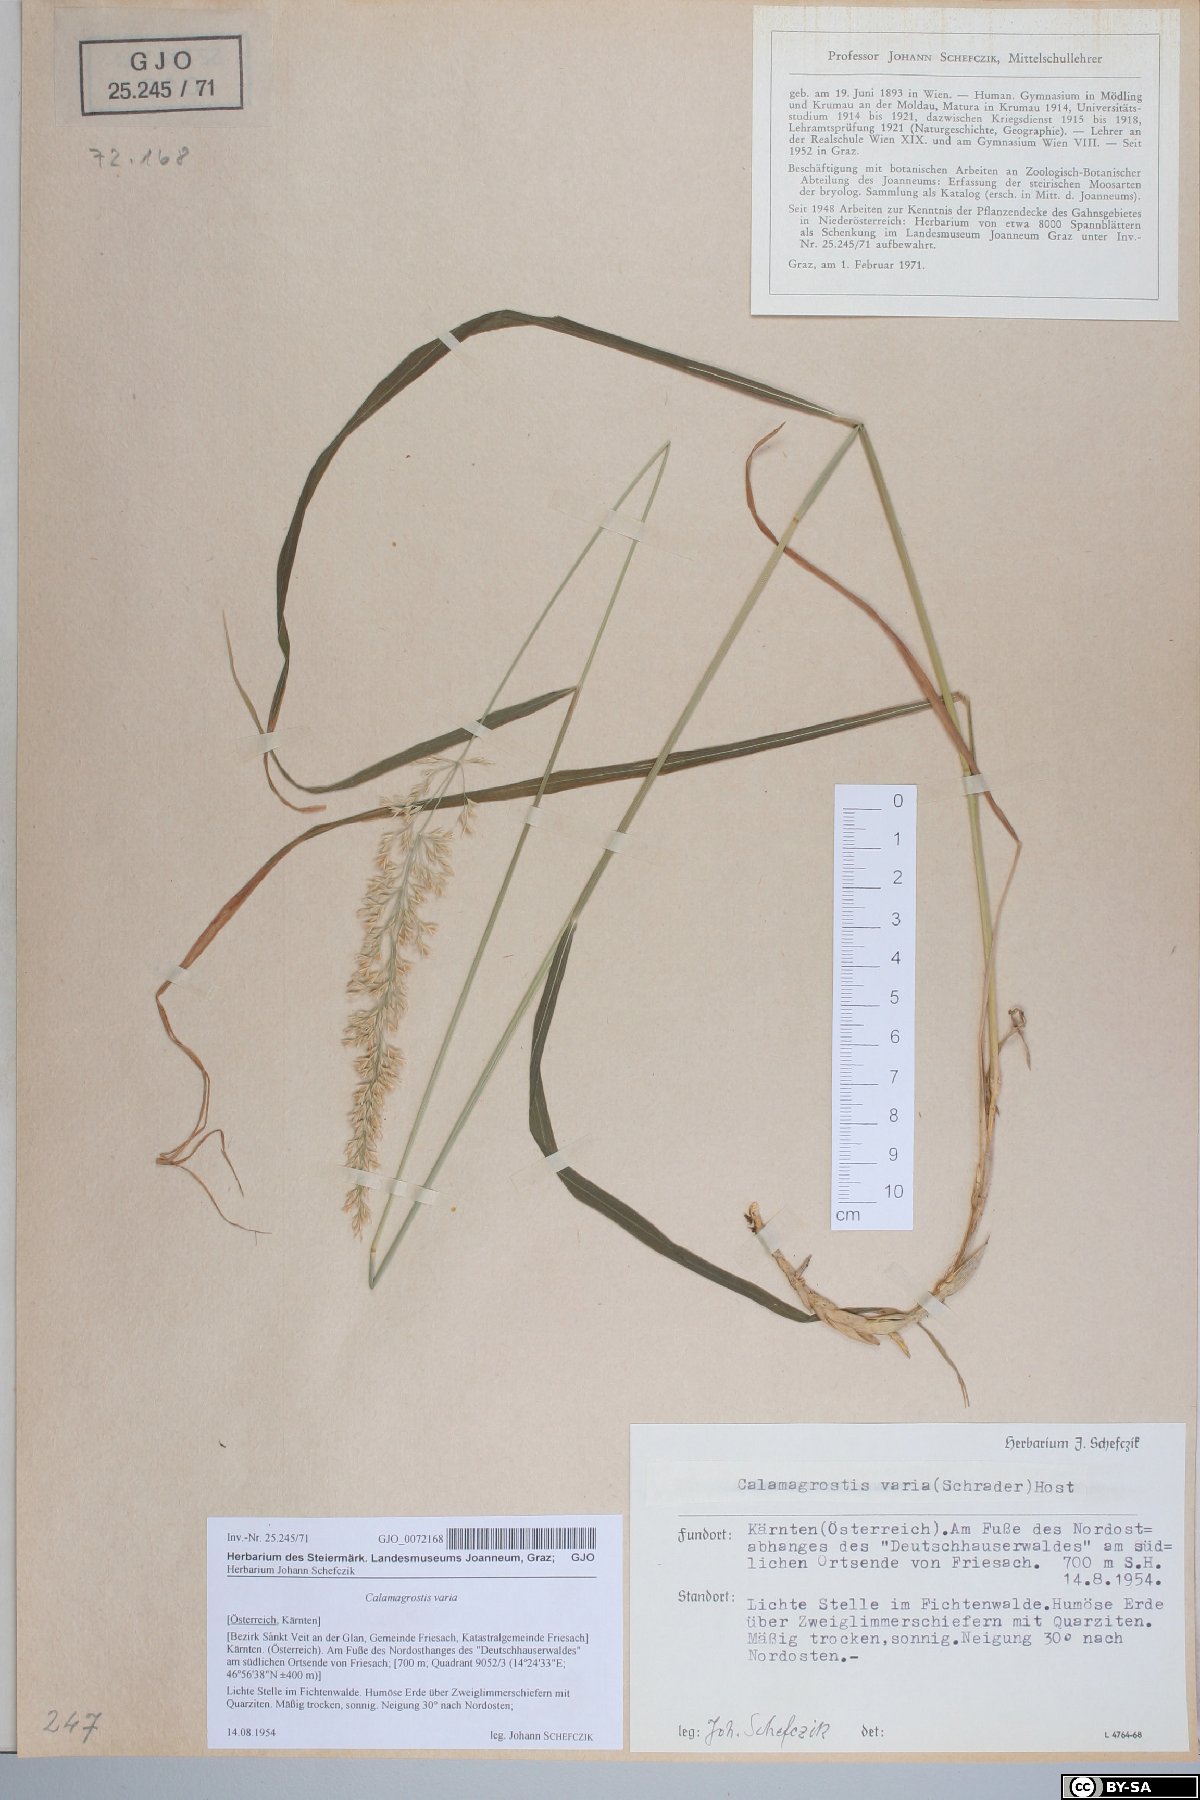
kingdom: Plantae
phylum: Tracheophyta
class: Liliopsida
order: Poales
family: Poaceae
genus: Calamagrostis
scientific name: Calamagrostis varia
